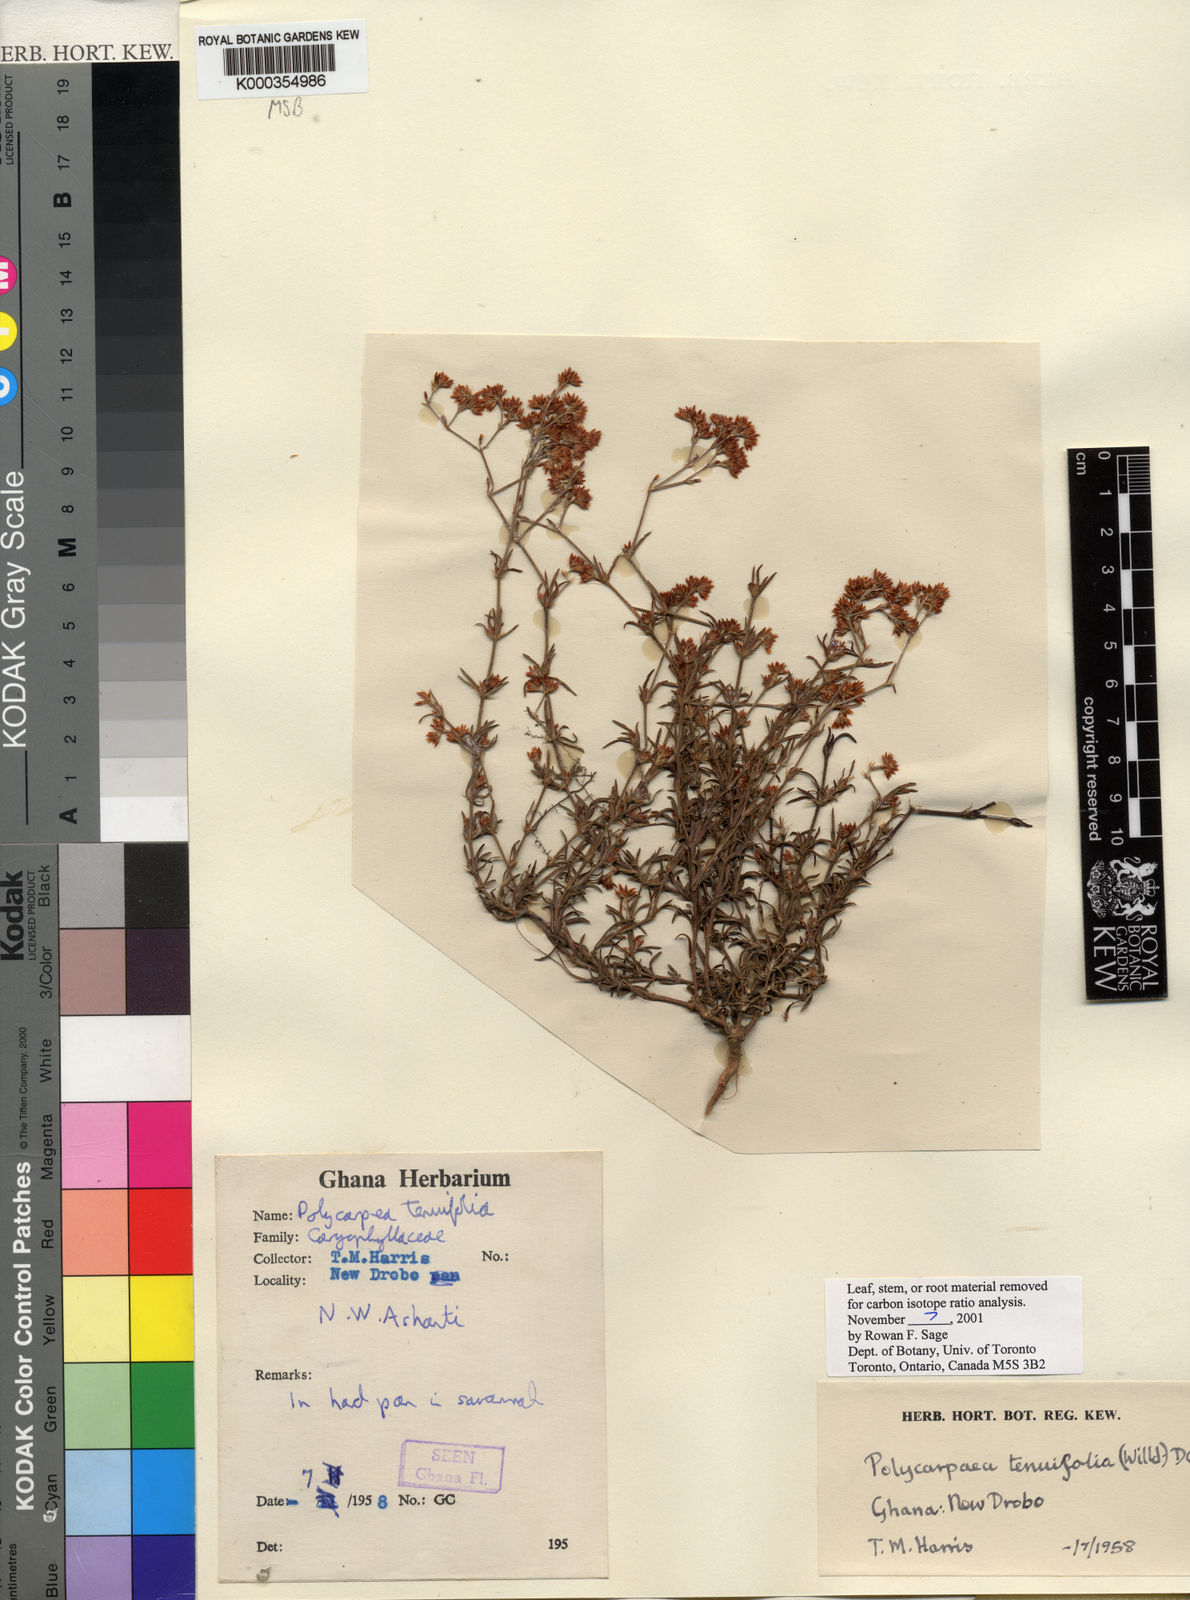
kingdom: Plantae
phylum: Tracheophyta
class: Magnoliopsida
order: Caryophyllales
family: Caryophyllaceae
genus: Polycarpaea
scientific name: Polycarpaea tenuifolia
